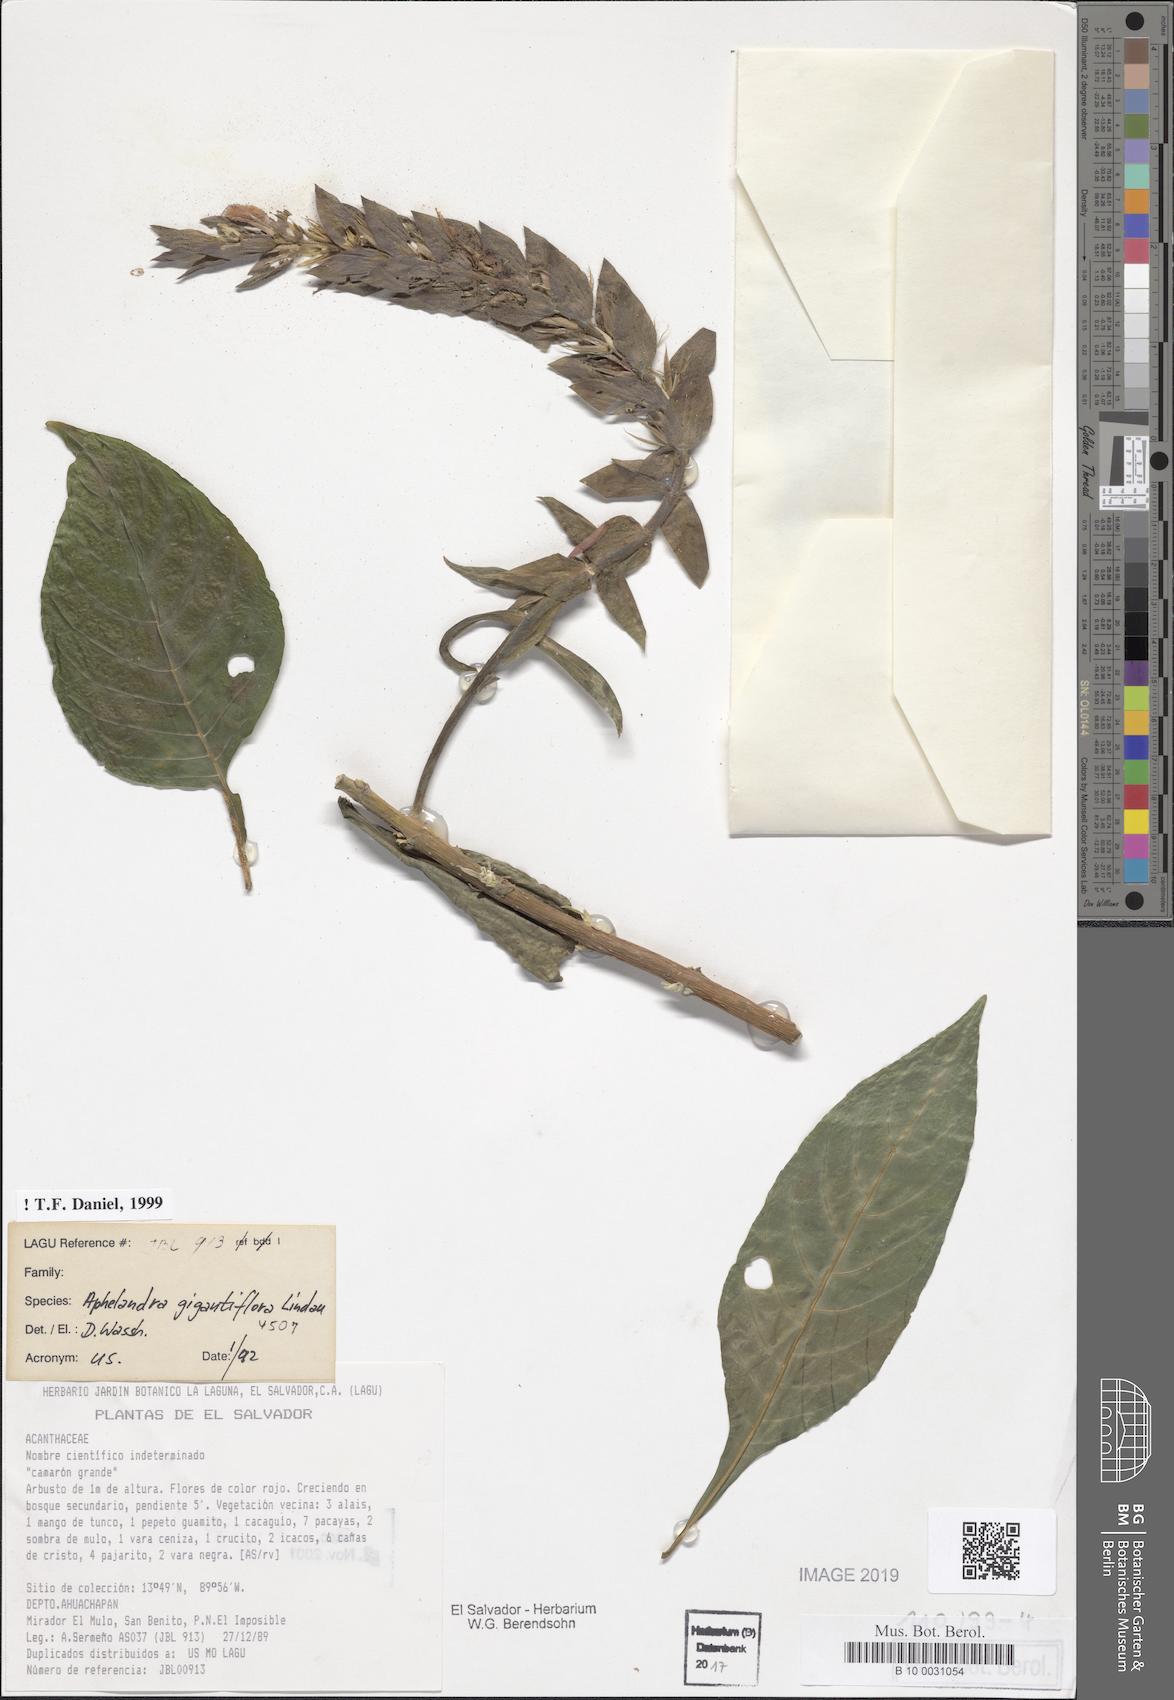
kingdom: Plantae
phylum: Tracheophyta
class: Magnoliopsida
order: Lamiales
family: Acanthaceae
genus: Aphelandra
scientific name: Aphelandra gigantiflora
